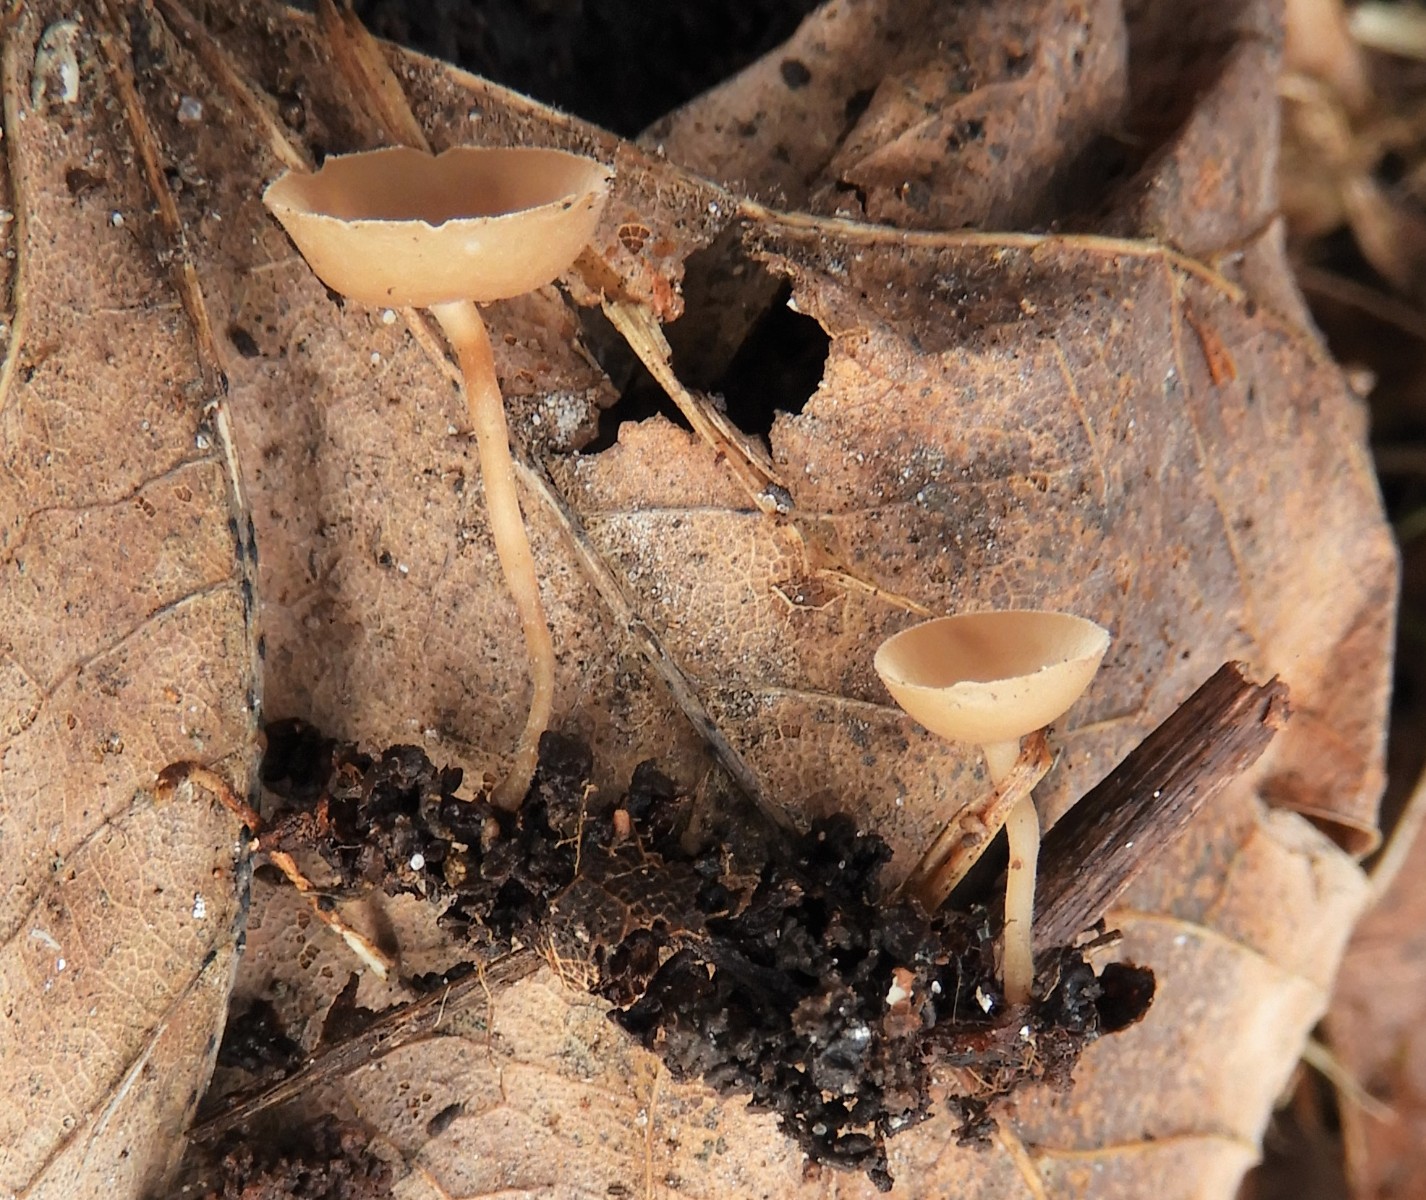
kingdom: Fungi
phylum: Ascomycota
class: Leotiomycetes
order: Helotiales
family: Sclerotiniaceae
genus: Ciboria
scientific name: Ciboria amentacea
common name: ellerakle-knoldskive
